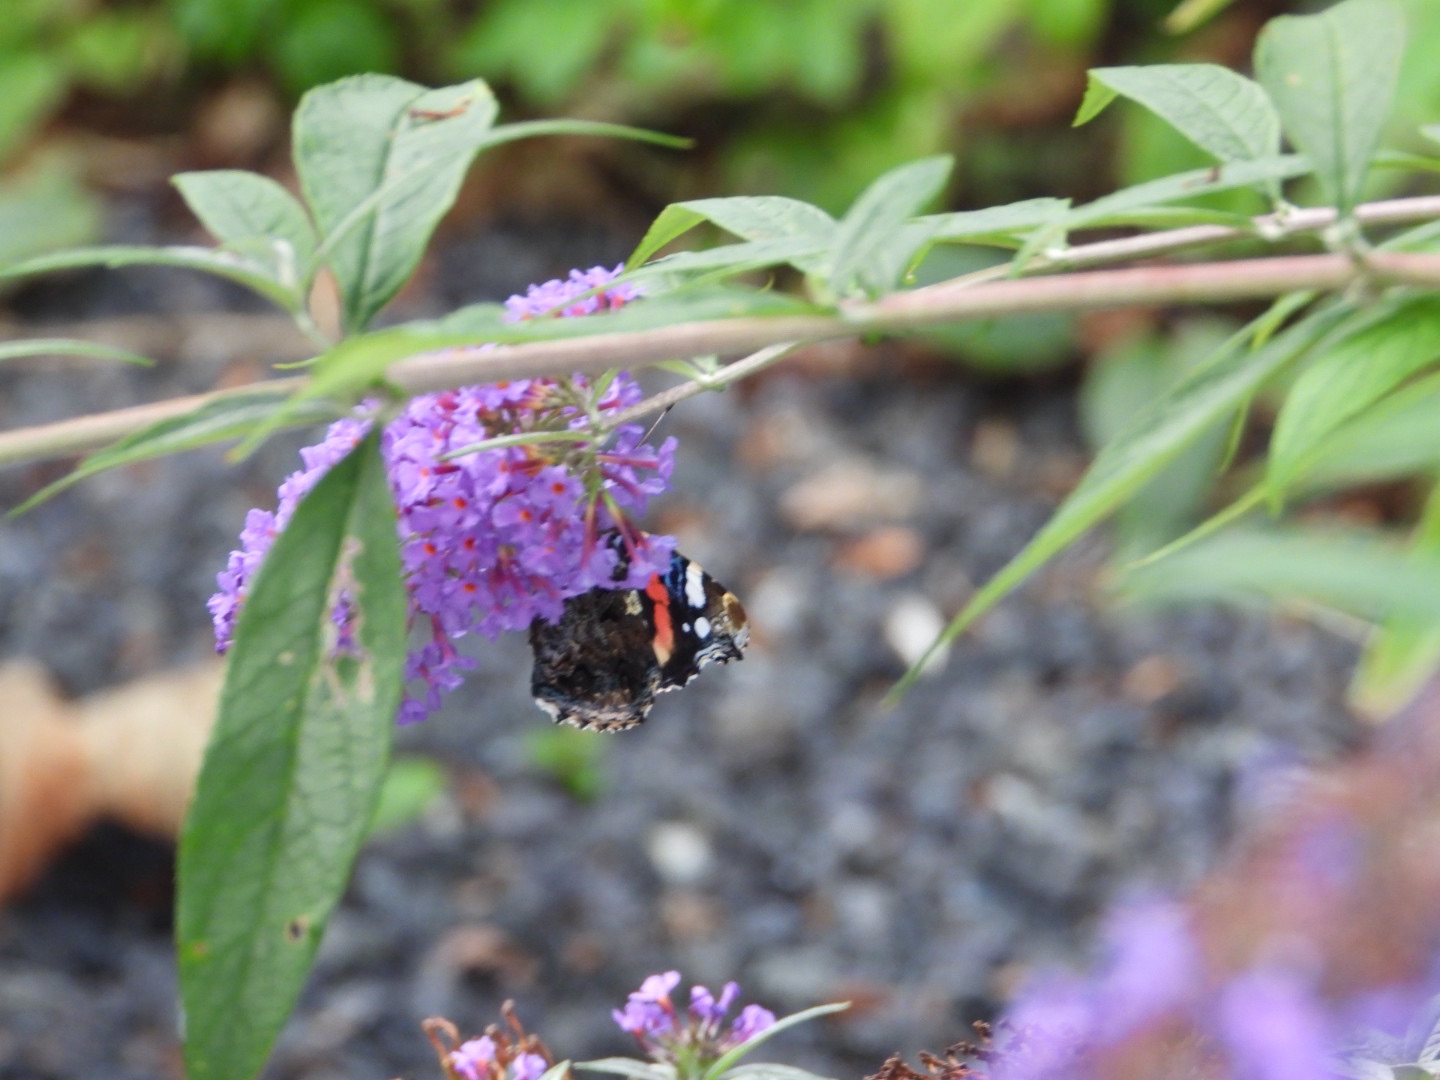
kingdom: Animalia
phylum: Arthropoda
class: Insecta
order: Lepidoptera
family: Nymphalidae
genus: Vanessa
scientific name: Vanessa atalanta
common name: Admiral
